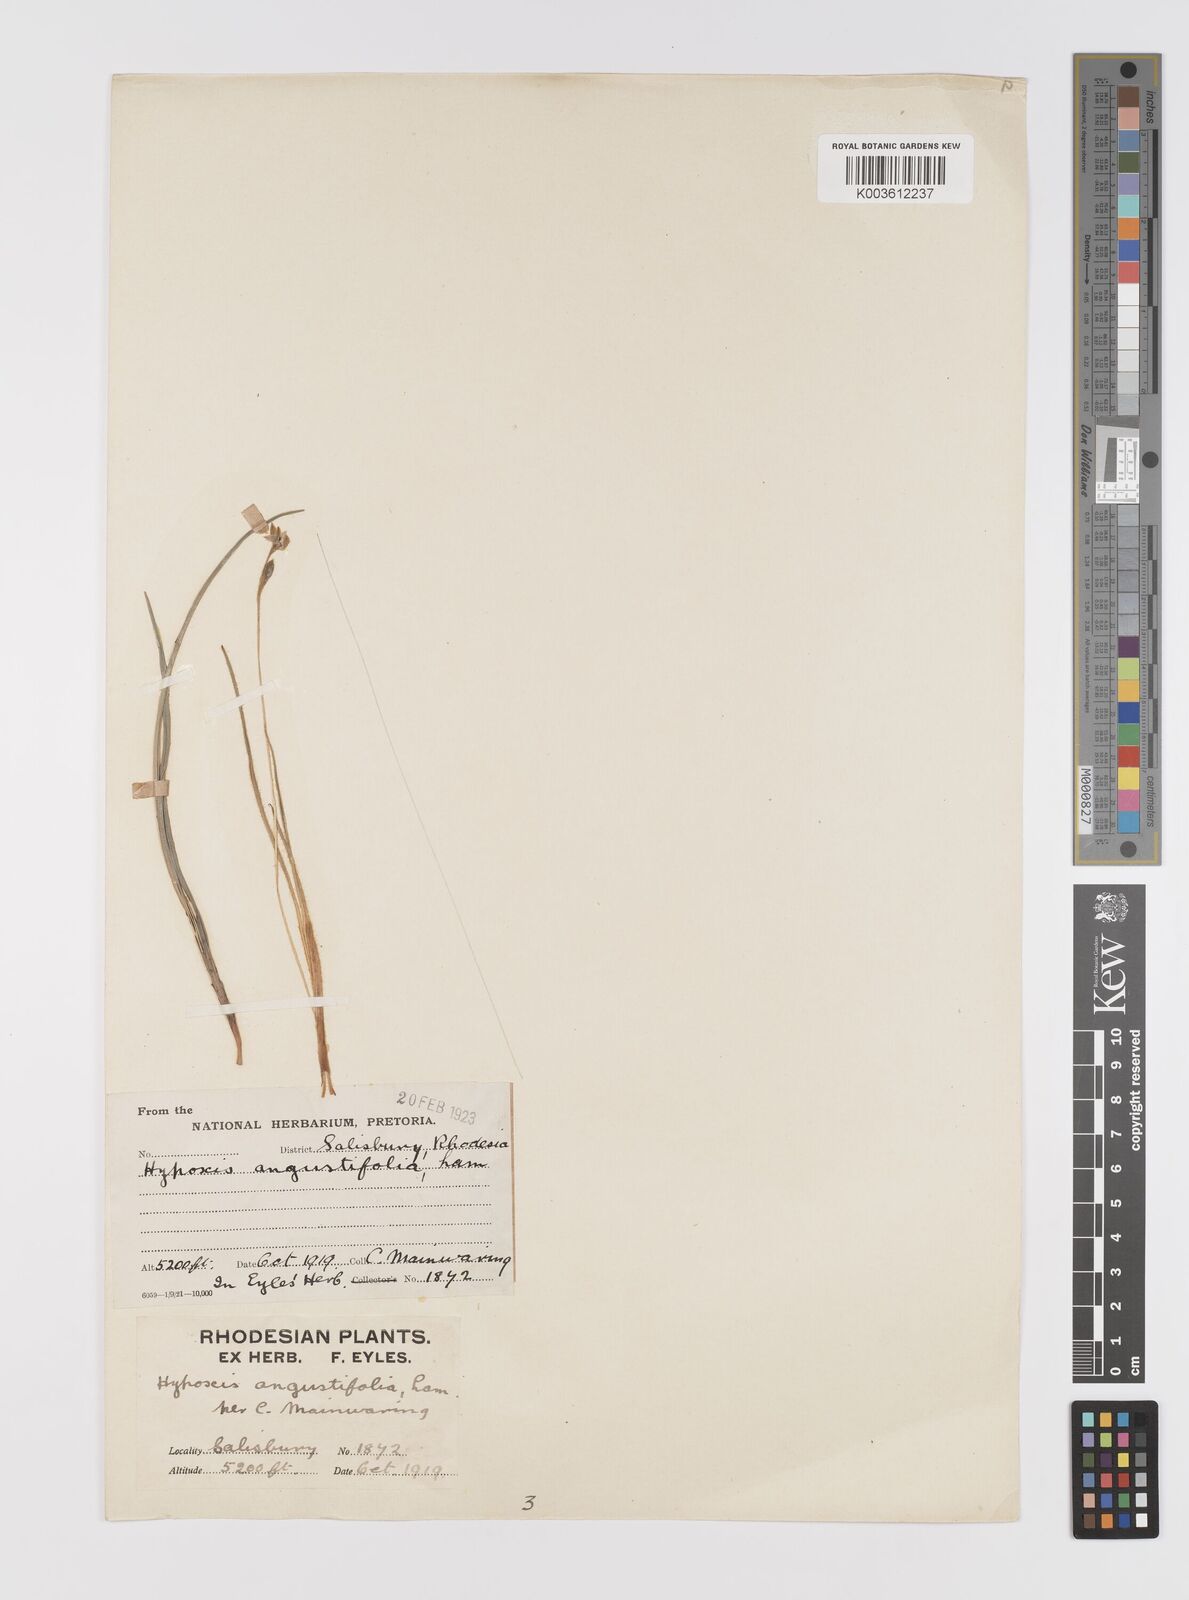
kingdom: Plantae
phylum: Tracheophyta
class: Liliopsida
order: Asparagales
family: Hypoxidaceae
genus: Hypoxis
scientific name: Hypoxis angustifolia
